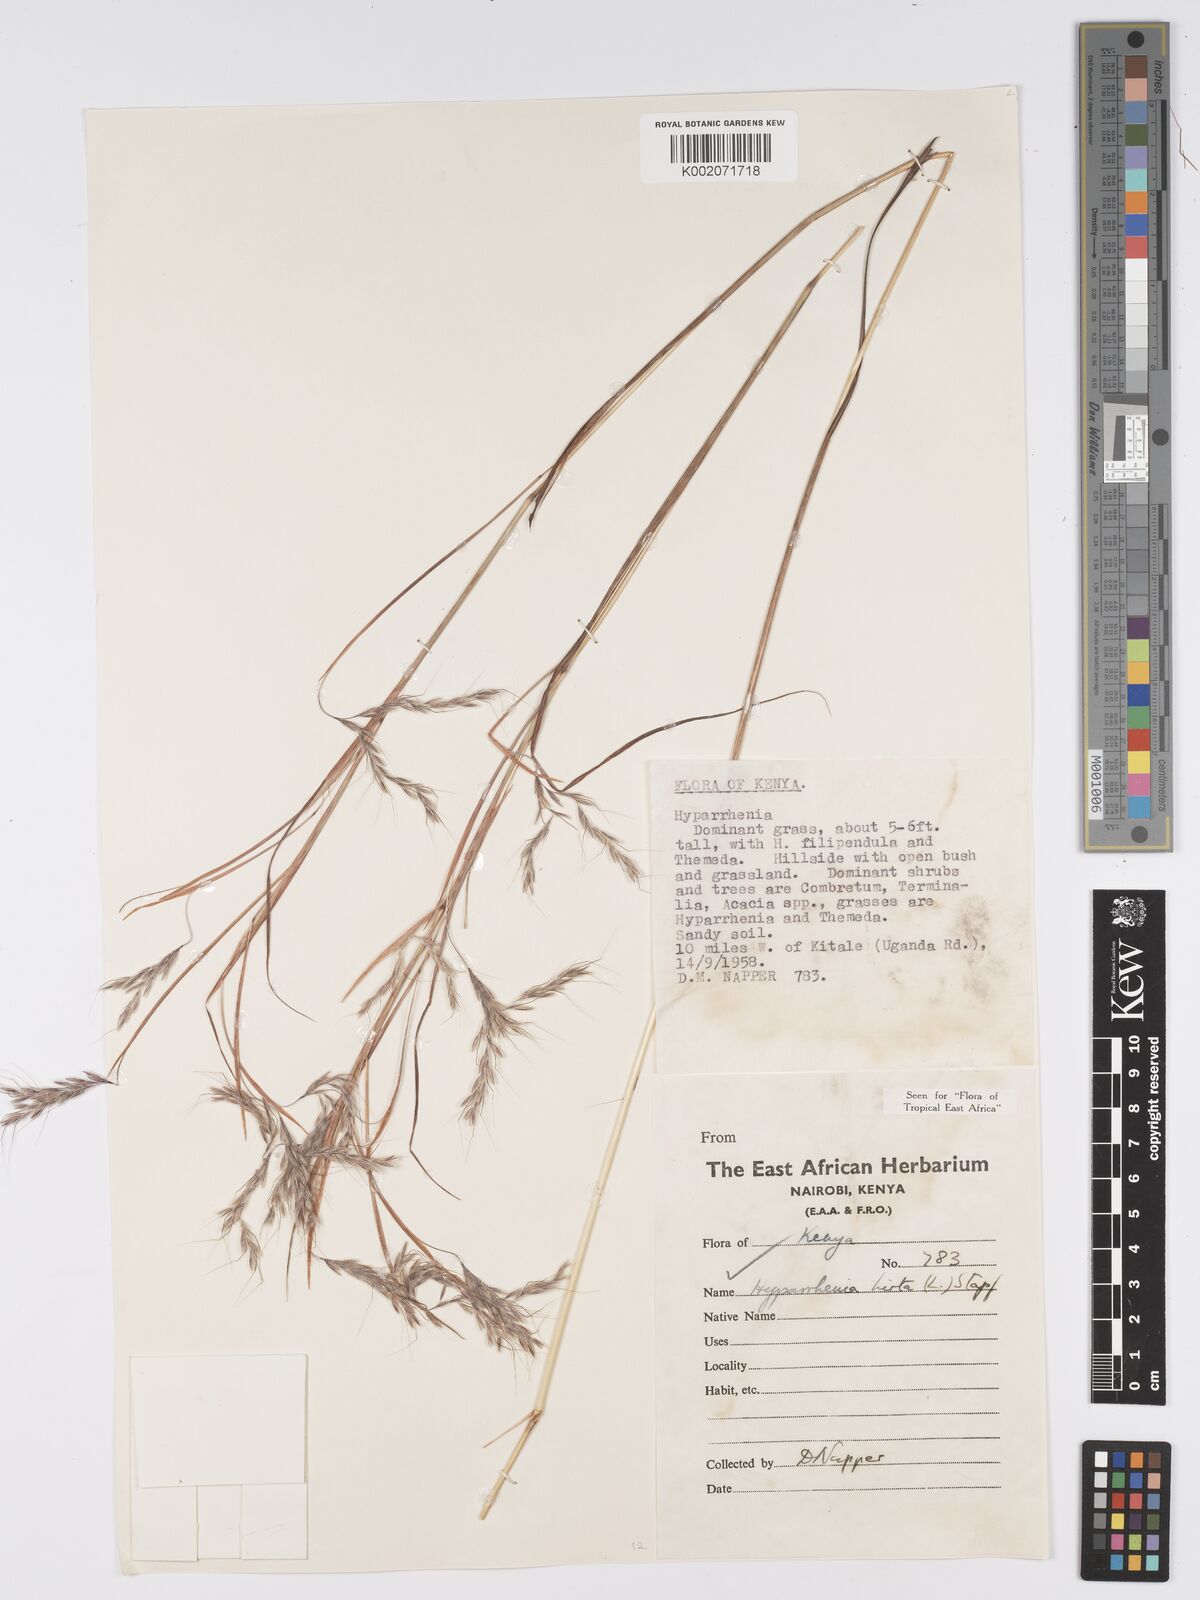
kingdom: Plantae
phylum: Tracheophyta
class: Liliopsida
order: Poales
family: Poaceae
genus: Hyparrhenia
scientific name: Hyparrhenia hirta
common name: Thatching grass
